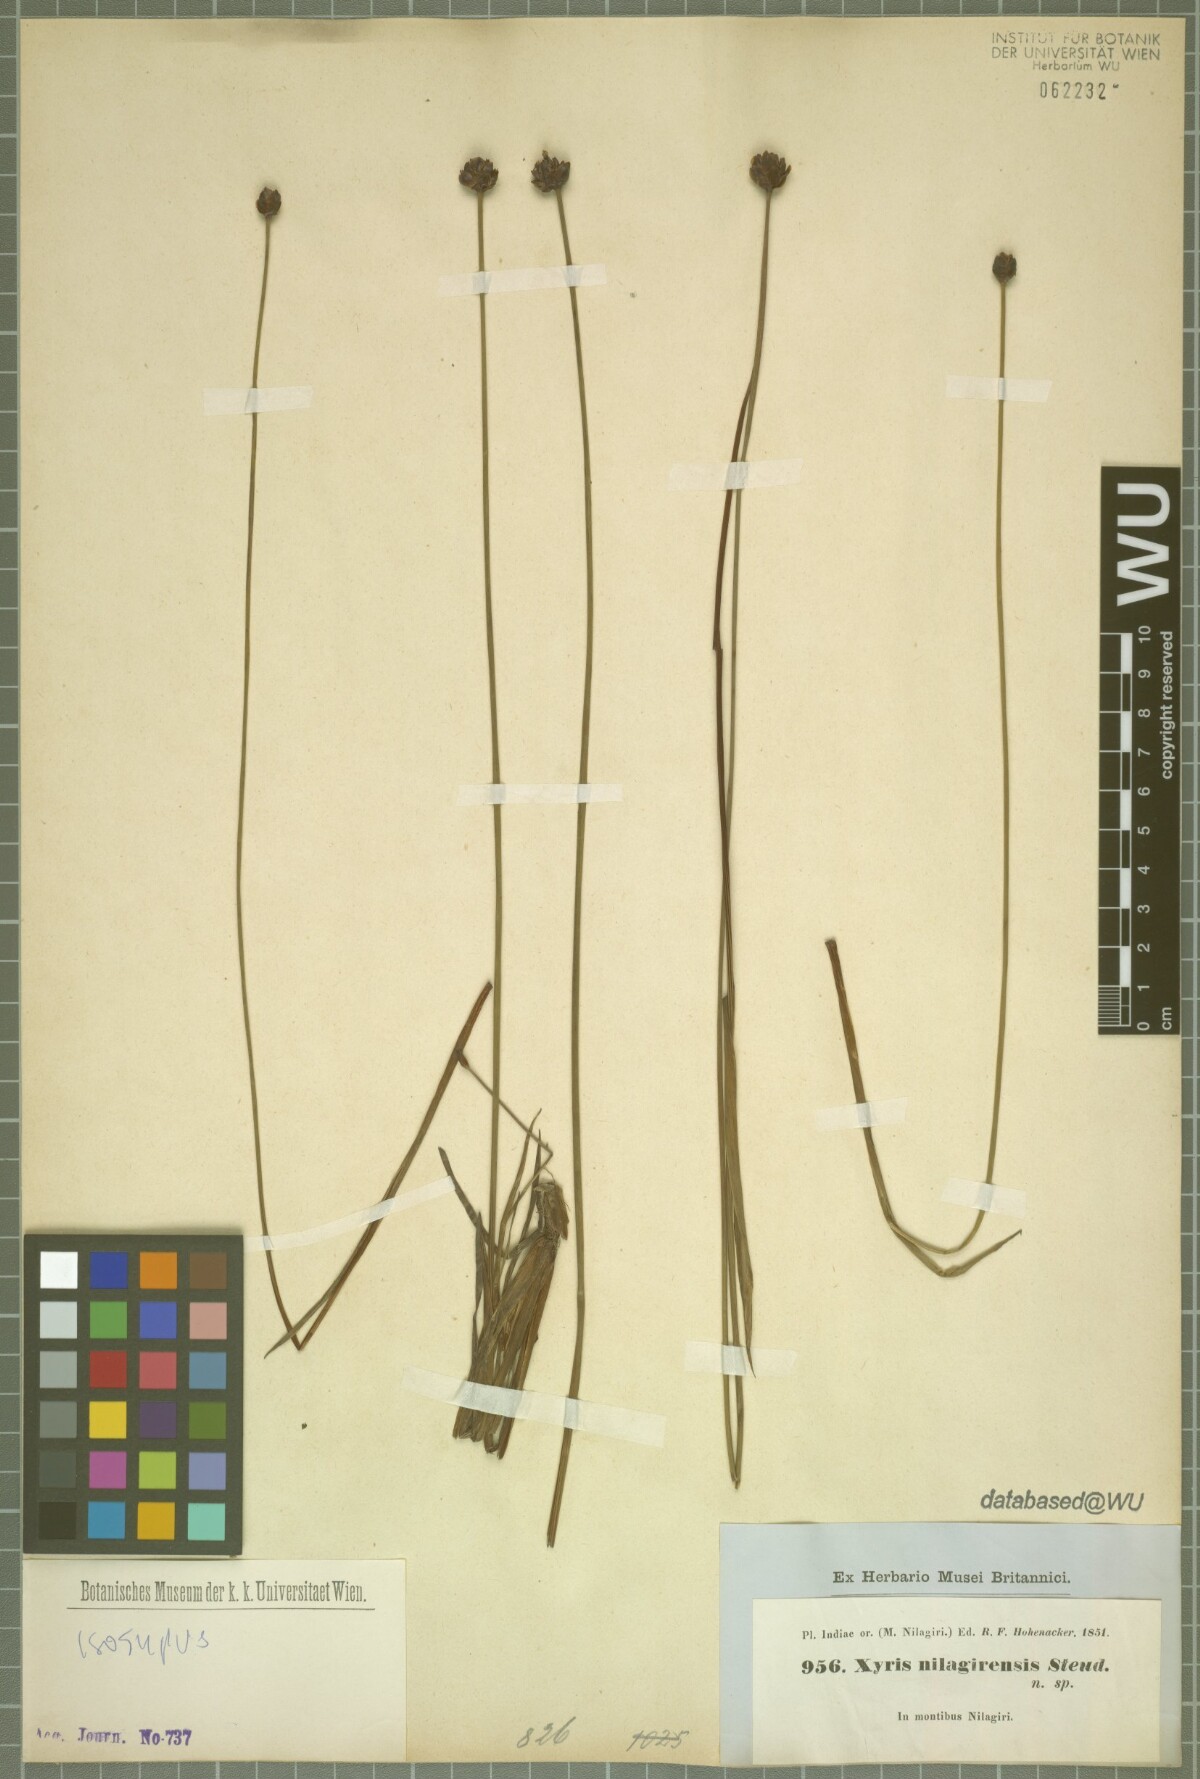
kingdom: Plantae
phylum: Tracheophyta
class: Liliopsida
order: Poales
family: Xyridaceae
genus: Xyris
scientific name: Xyris capensis
